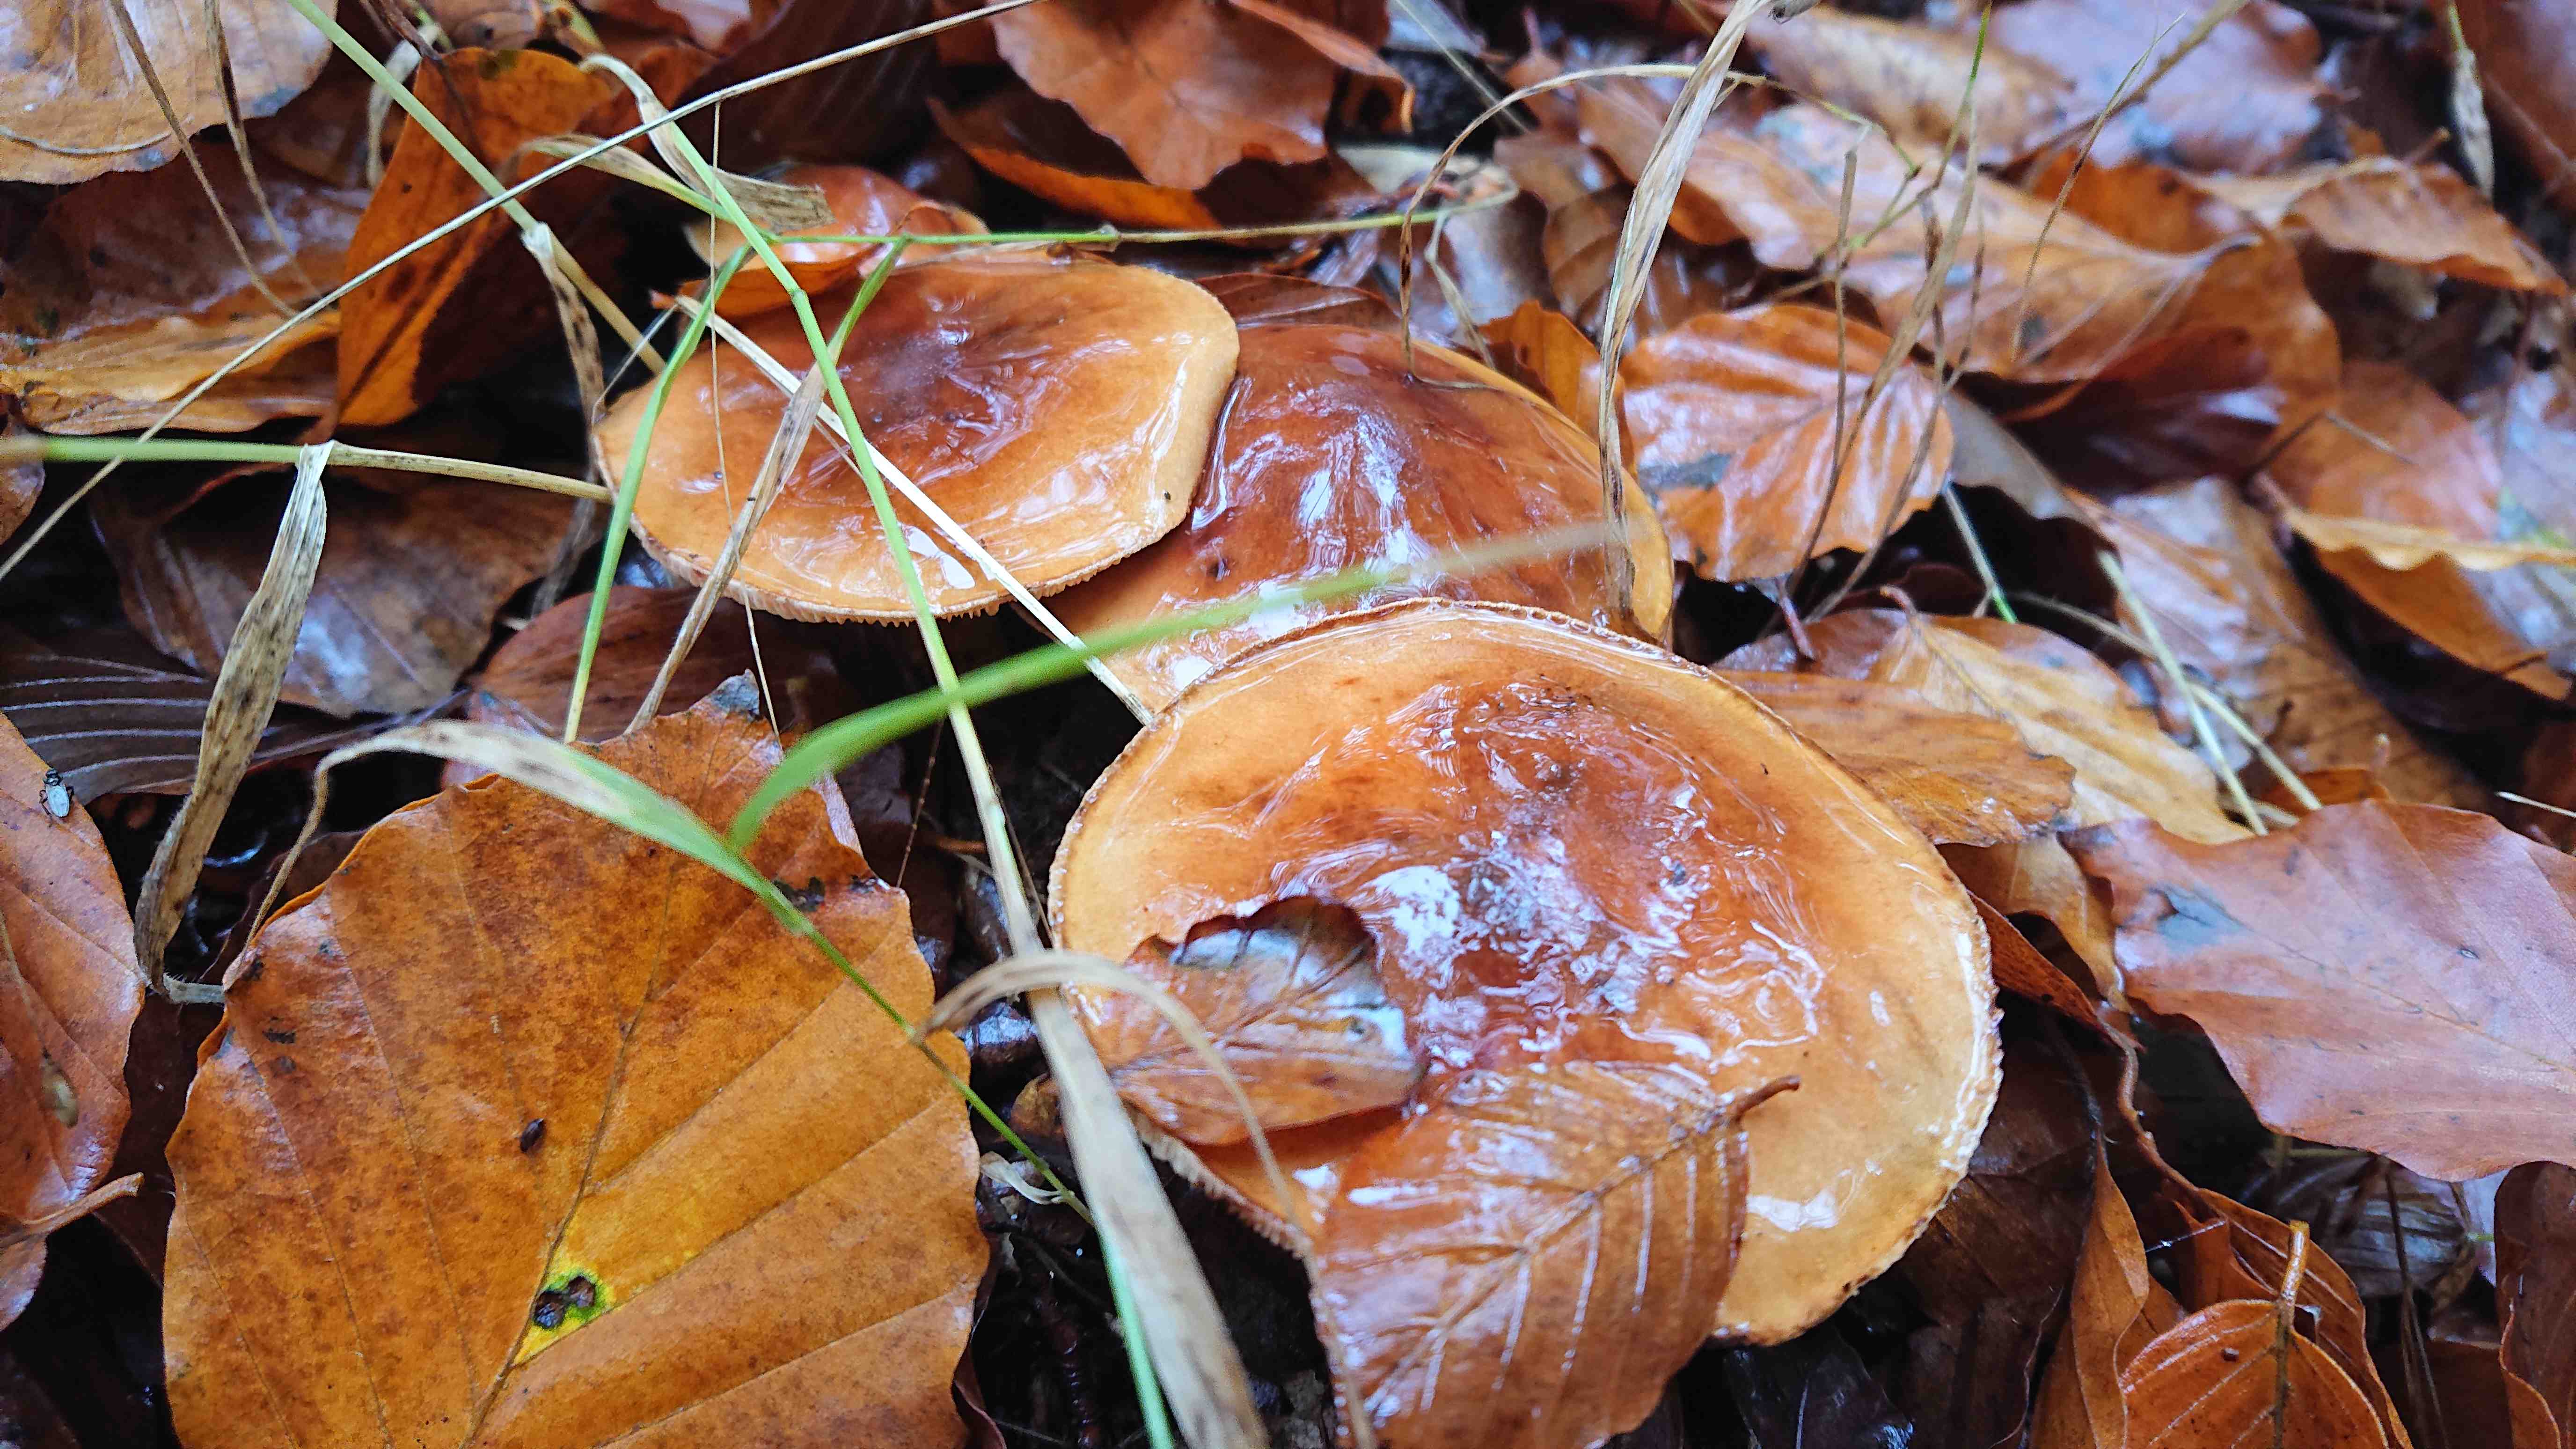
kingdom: Fungi
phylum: Basidiomycota
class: Agaricomycetes
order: Agaricales
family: Tricholomataceae
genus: Tricholoma
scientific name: Tricholoma ustale
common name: sveden ridderhat
